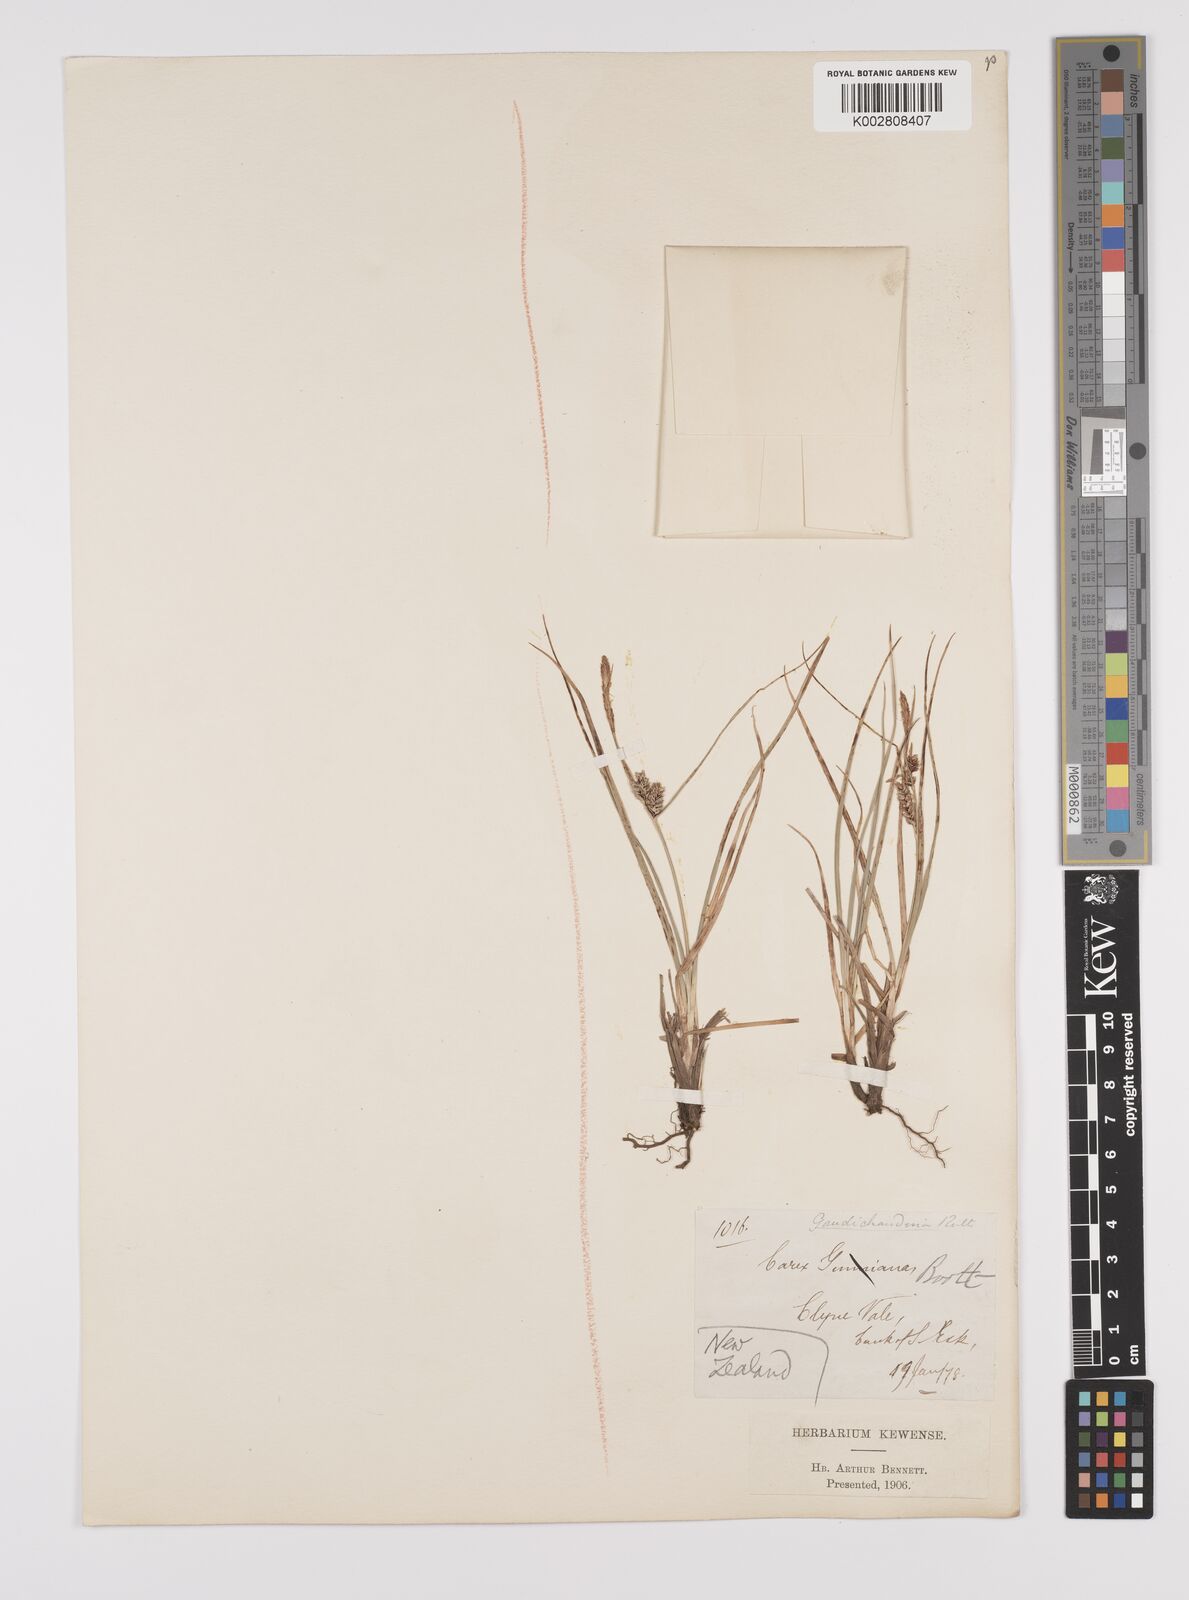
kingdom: Plantae
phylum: Tracheophyta
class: Liliopsida
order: Poales
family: Cyperaceae
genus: Carex
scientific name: Carex gaudichaudiana
